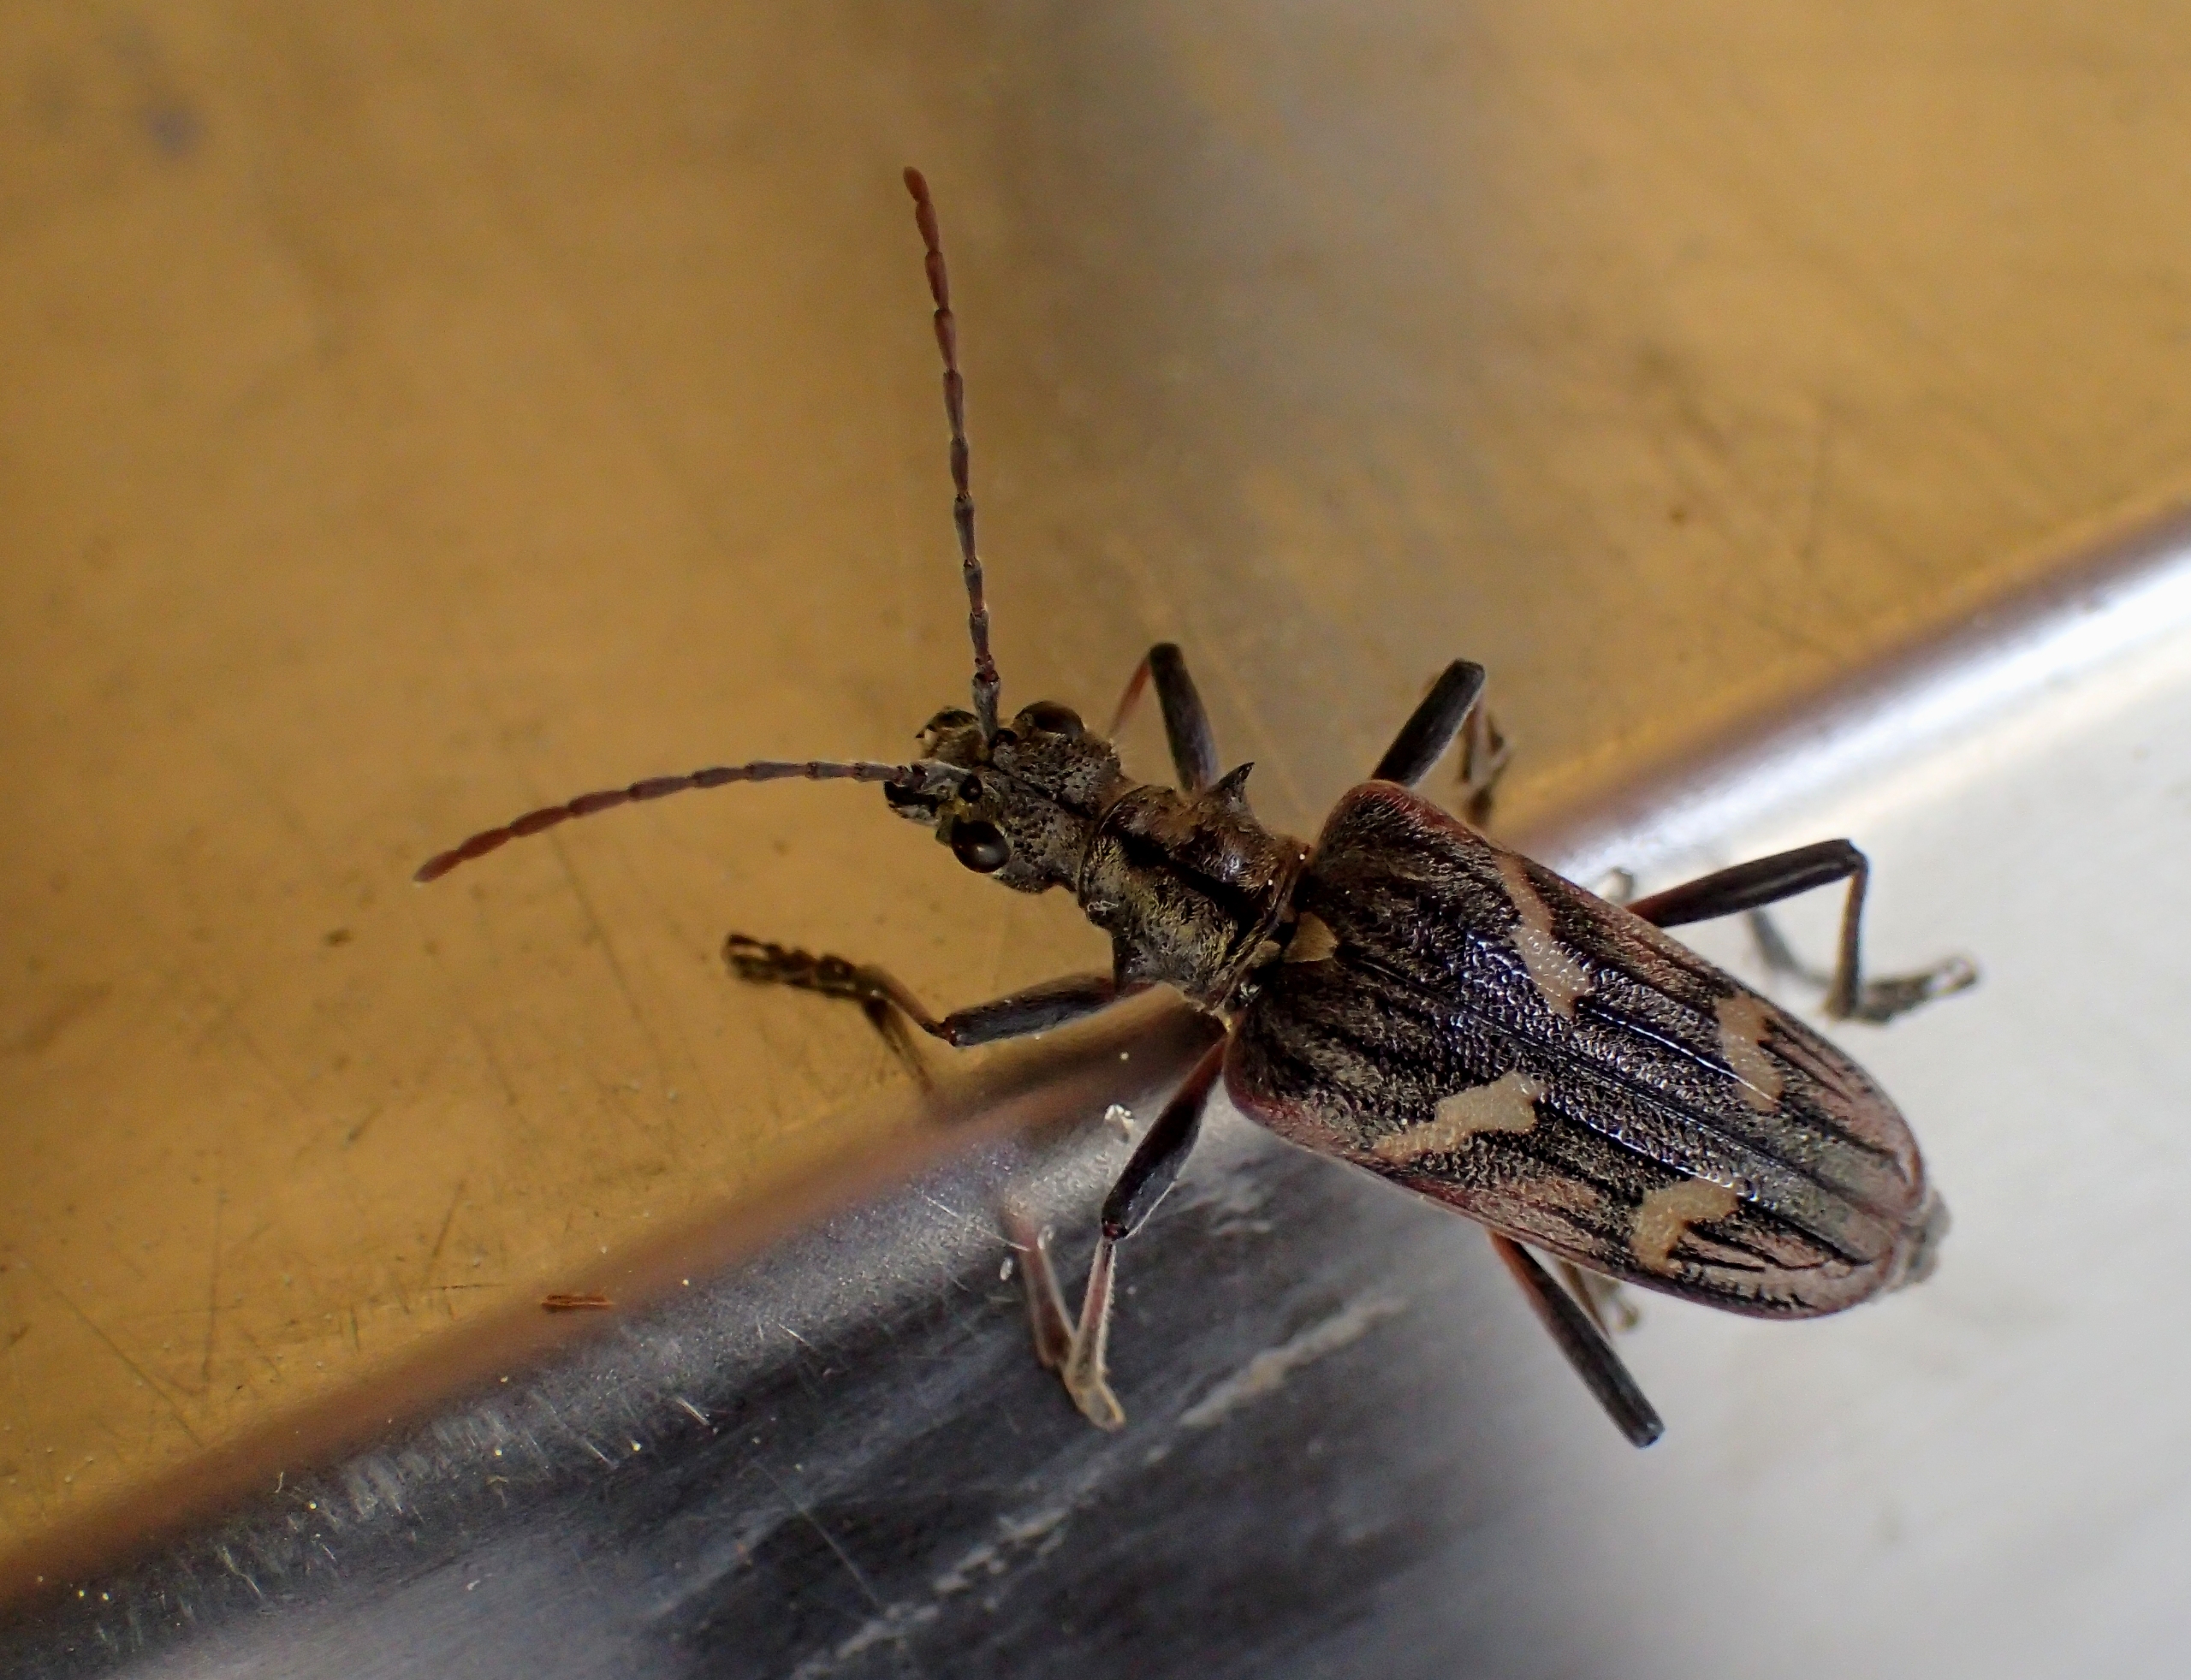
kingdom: Animalia
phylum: Arthropoda
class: Insecta
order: Coleoptera
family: Cerambycidae
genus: Rhagium
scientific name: Rhagium bifasciatum
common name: Båndet tandbuk
